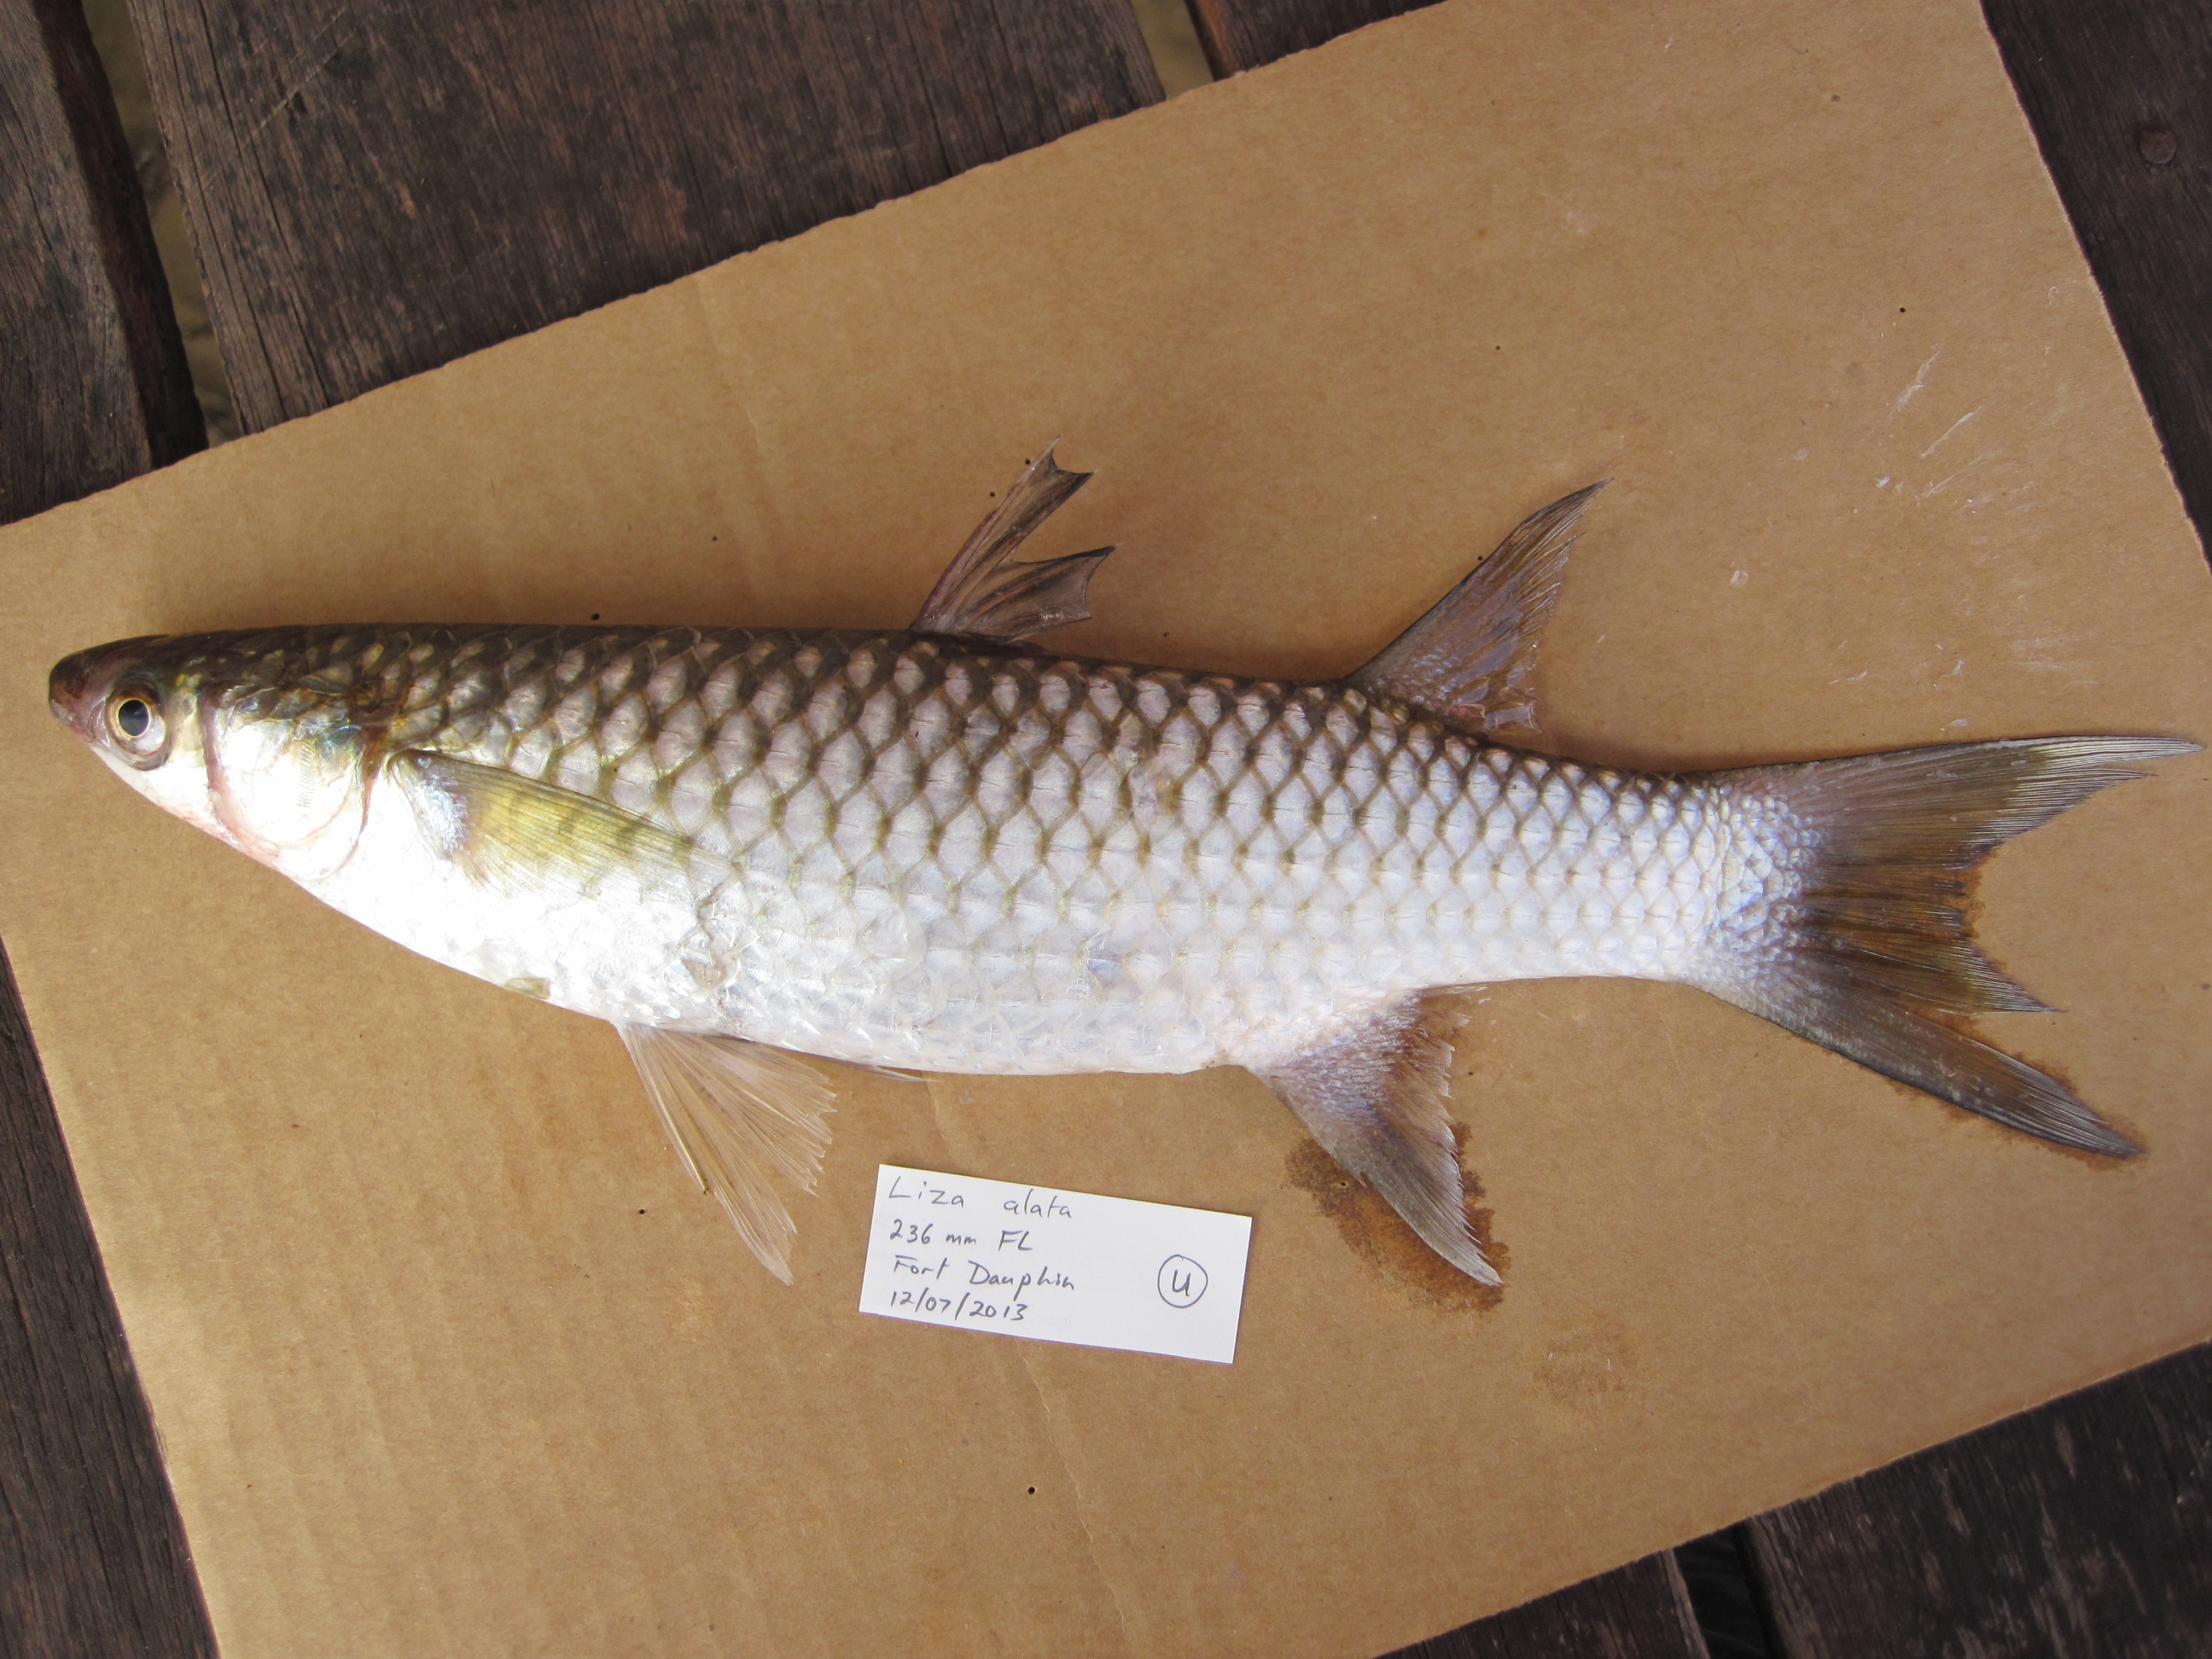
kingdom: Animalia
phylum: Chordata
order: Mugiliformes
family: Mugilidae
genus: Planiliza
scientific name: Planiliza alata
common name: Diamond mullet
